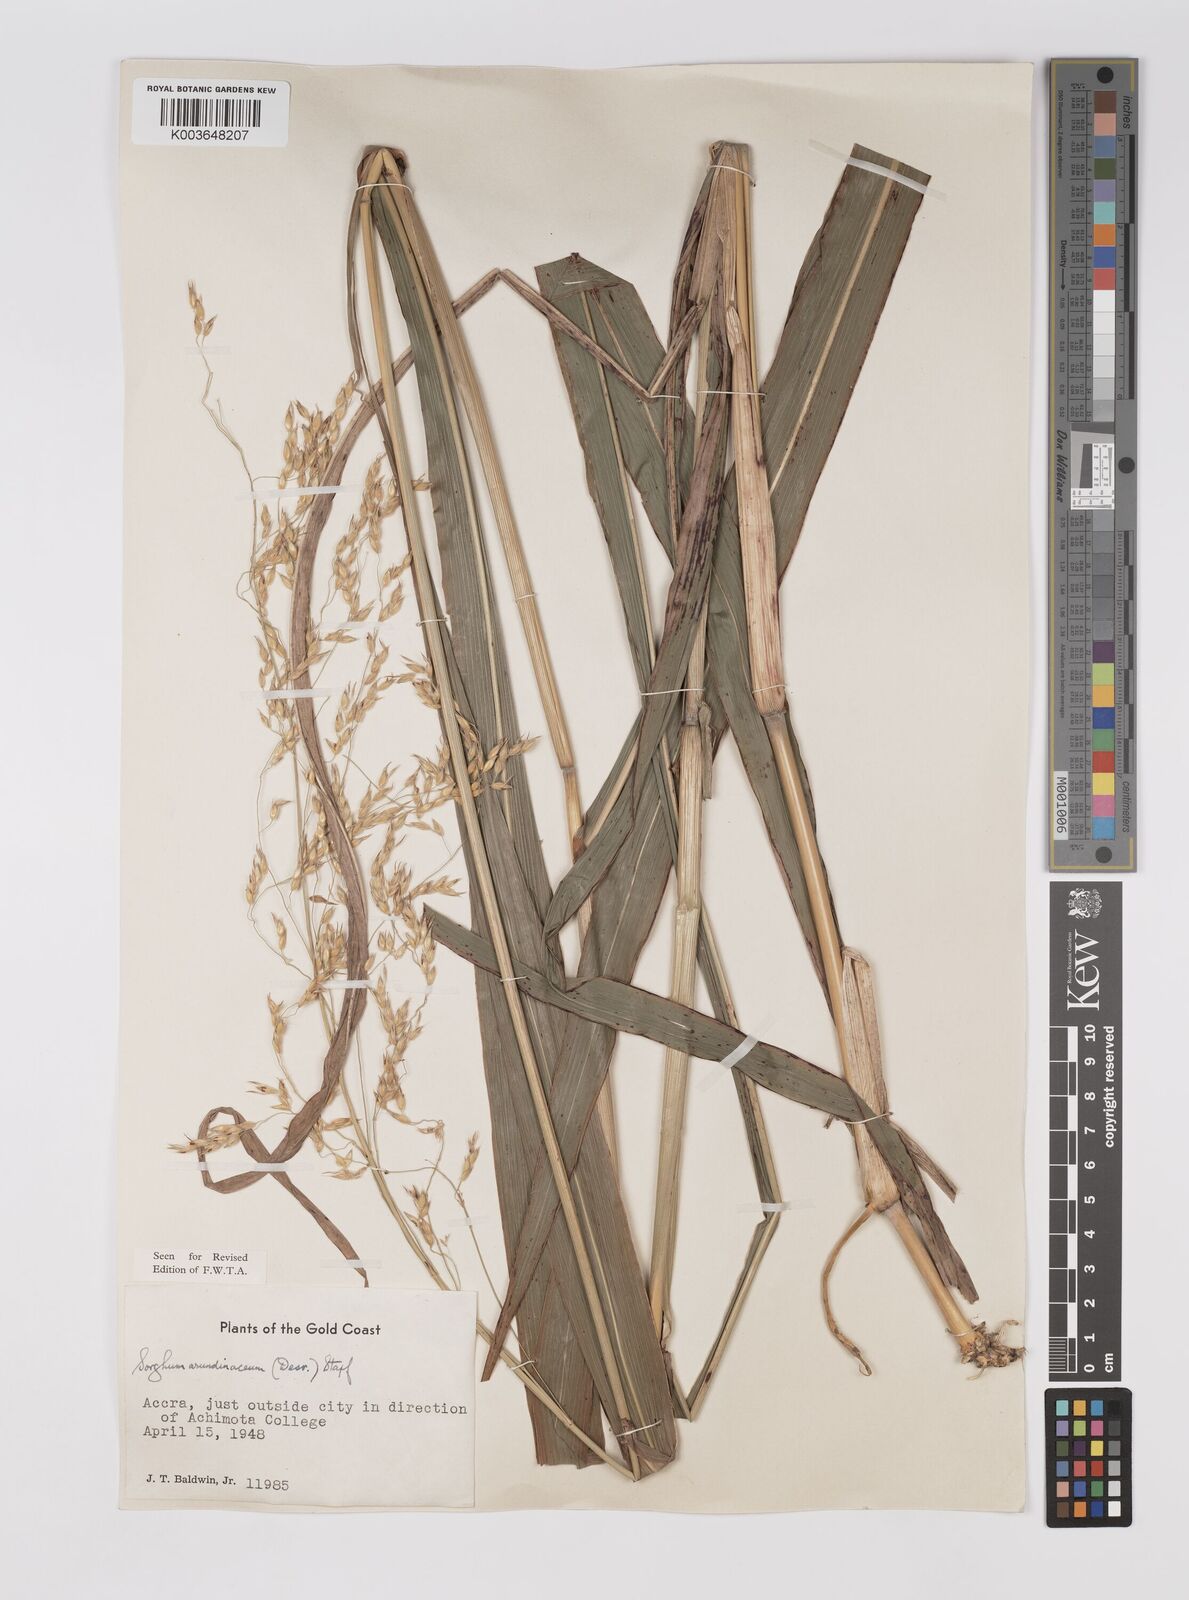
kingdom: Plantae
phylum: Tracheophyta
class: Liliopsida
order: Poales
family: Poaceae
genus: Sorghum
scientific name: Sorghum arundinaceum
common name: Sorghum
